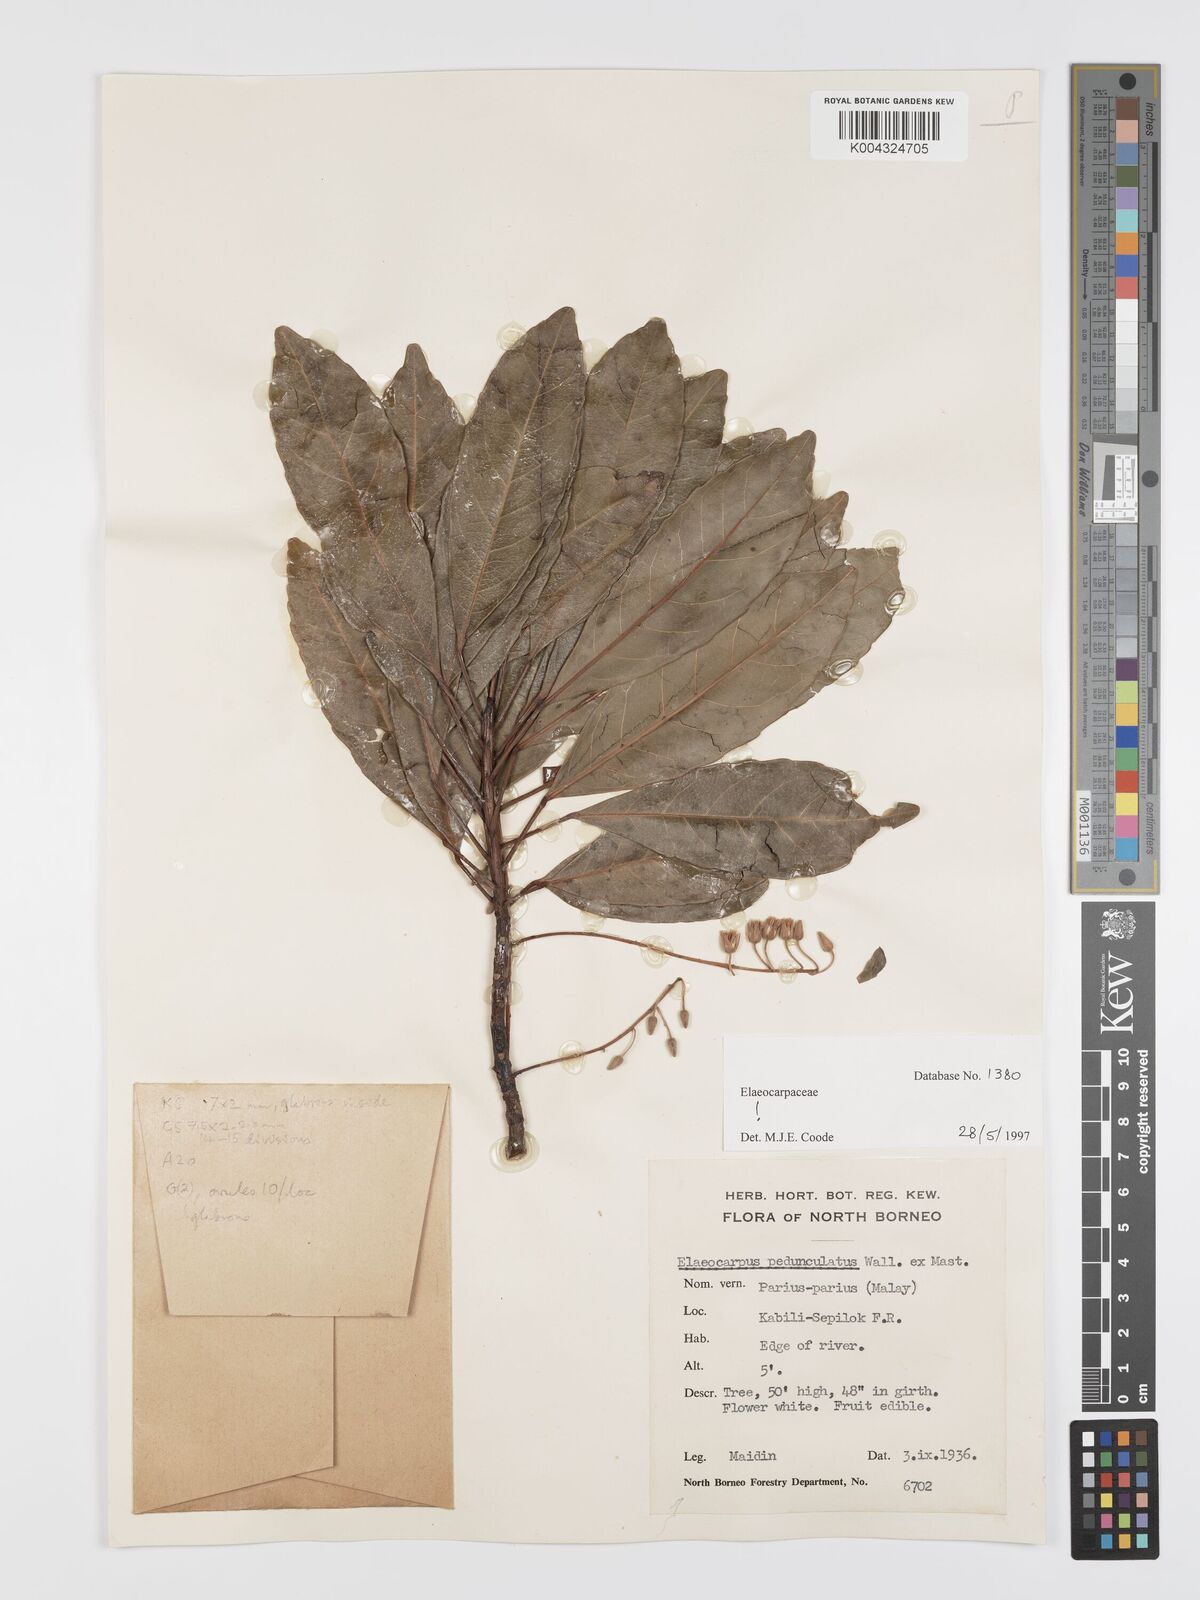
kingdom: Plantae
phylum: Tracheophyta
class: Magnoliopsida
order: Oxalidales
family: Elaeocarpaceae
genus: Elaeocarpus
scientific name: Elaeocarpus pedunculatus
